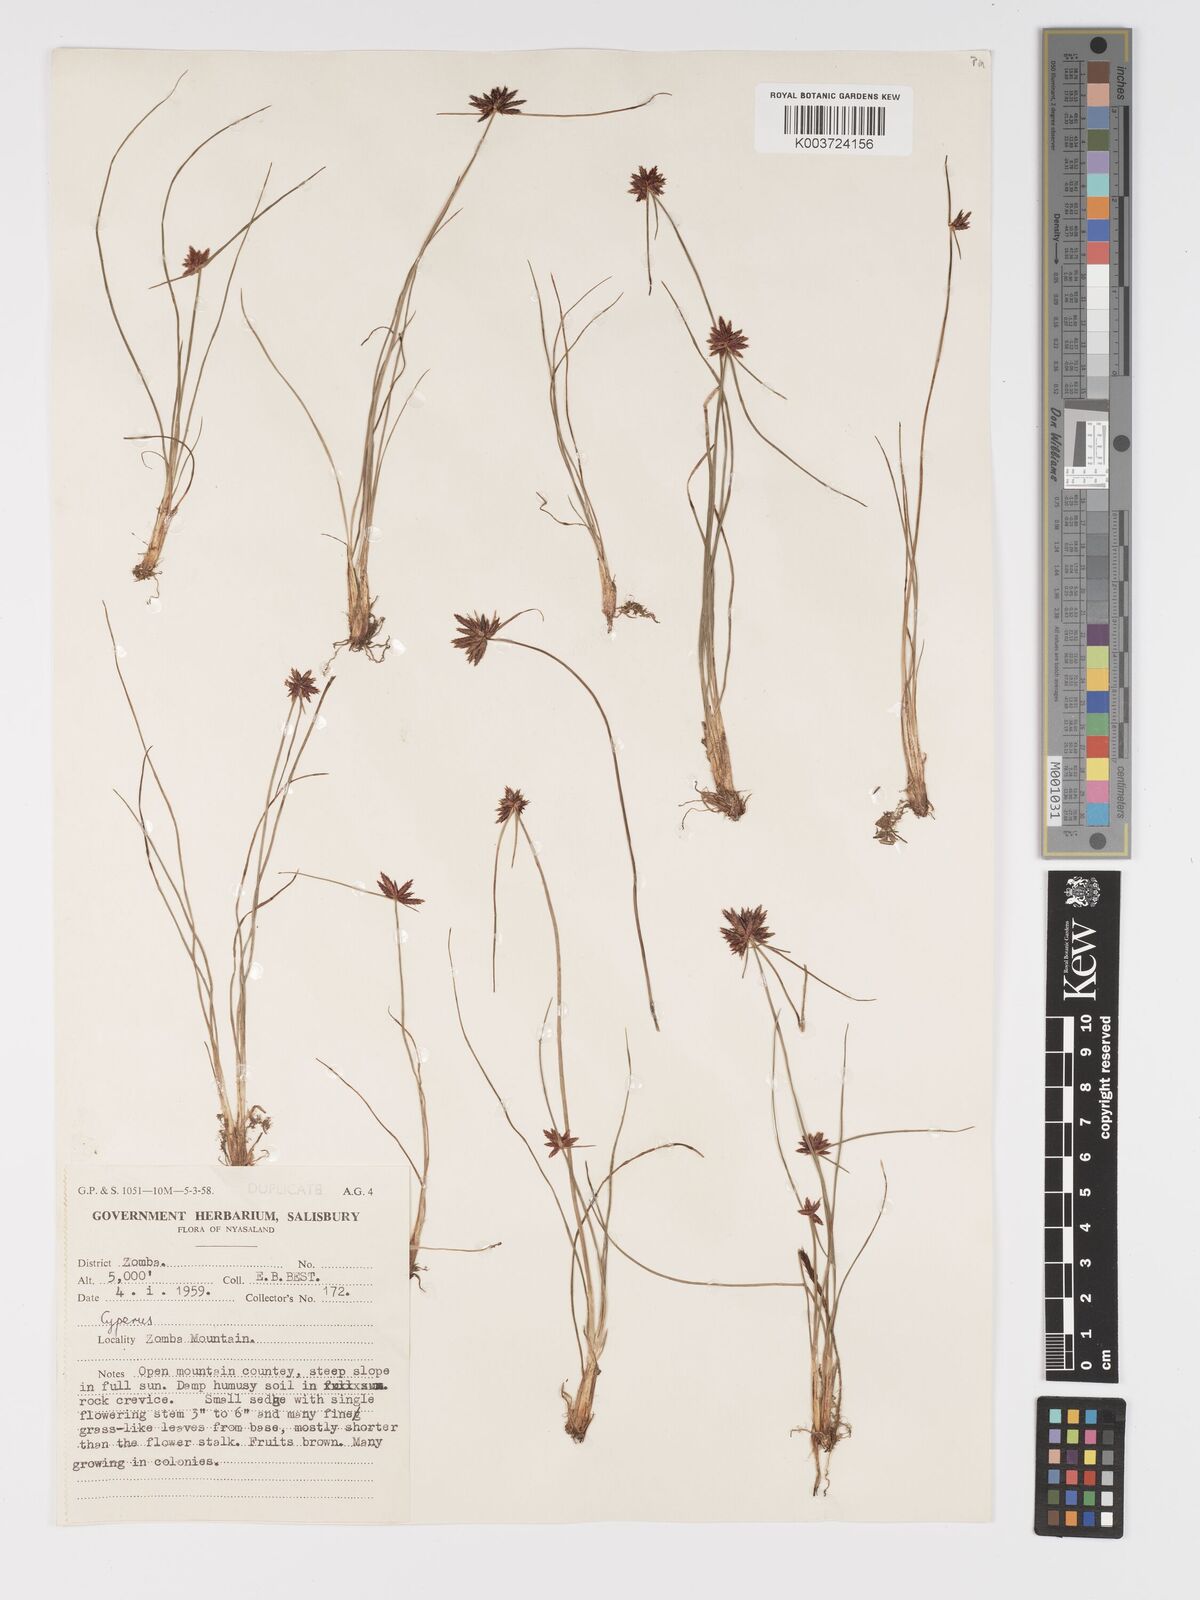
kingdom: Plantae
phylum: Tracheophyta
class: Liliopsida
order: Poales
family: Cyperaceae
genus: Cyperus
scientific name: Cyperus rupestris
